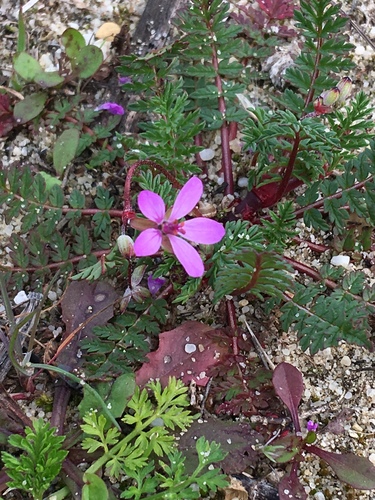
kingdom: Plantae
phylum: Tracheophyta
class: Magnoliopsida
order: Geraniales
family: Geraniaceae
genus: Erodium
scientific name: Erodium cicutarium
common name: Common stork's-bill
